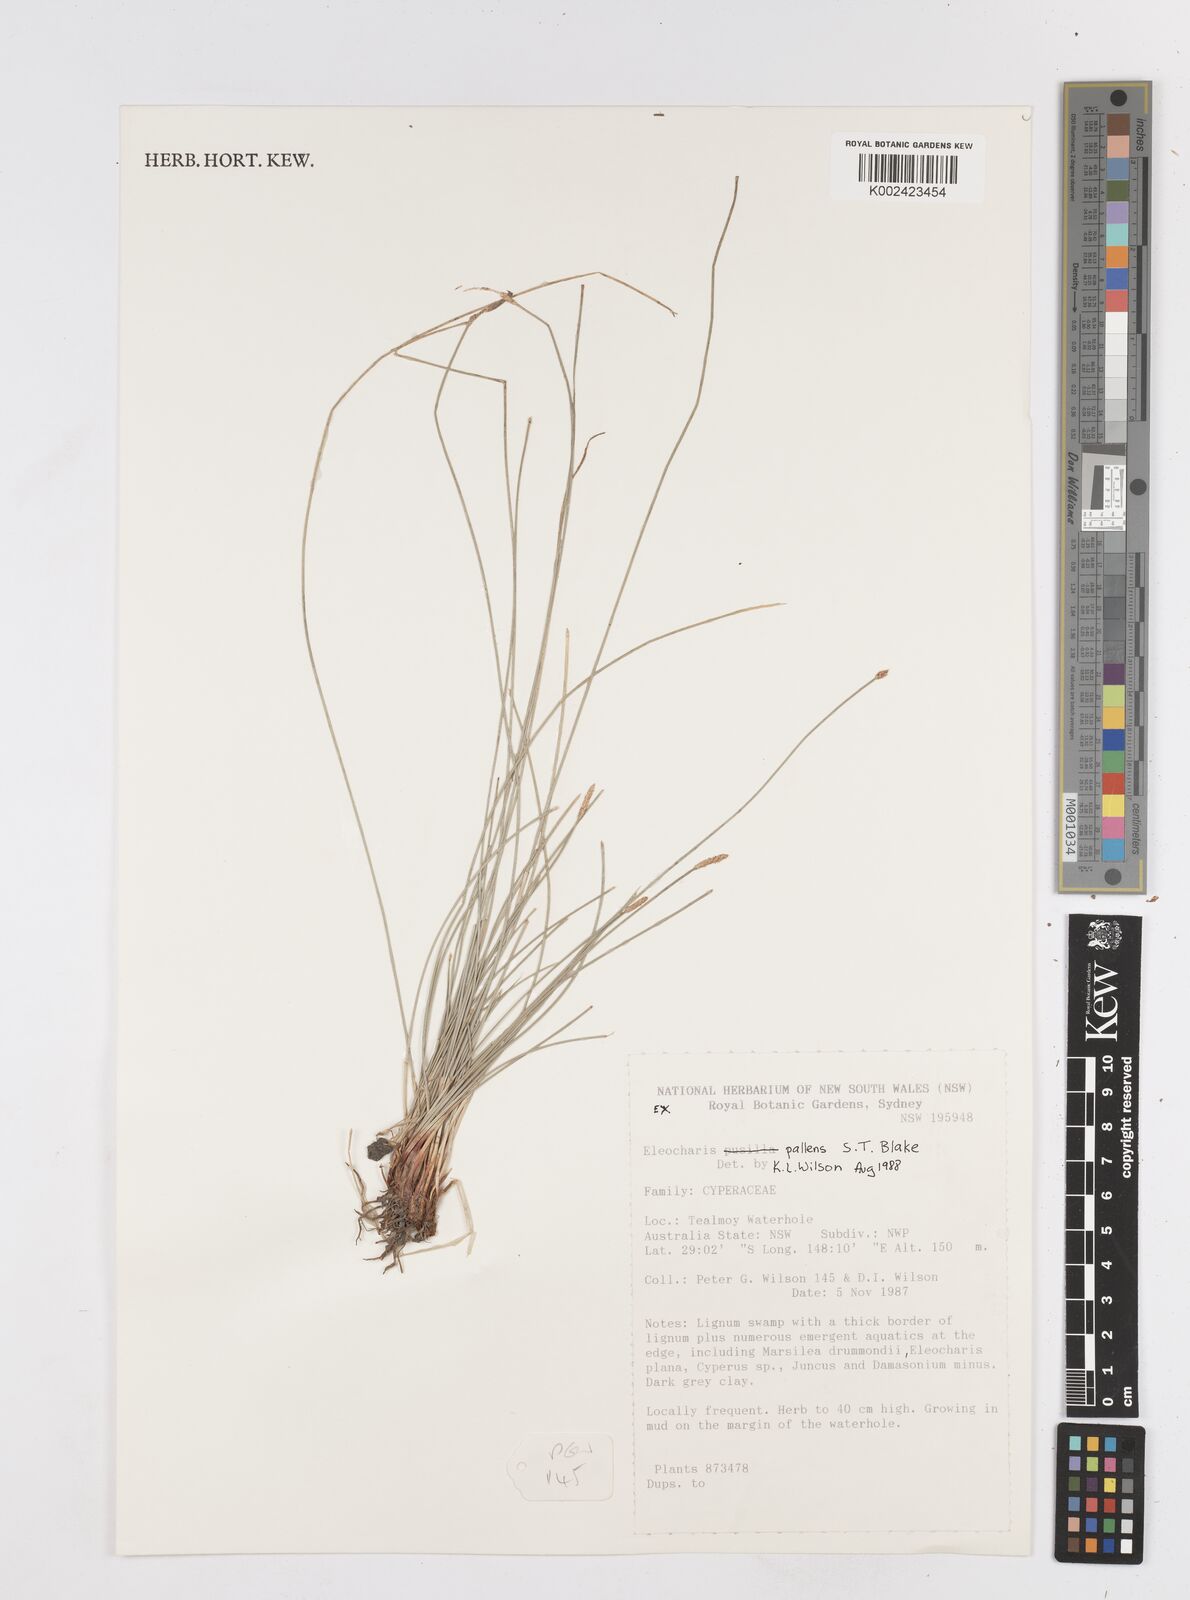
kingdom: Plantae
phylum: Tracheophyta
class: Liliopsida
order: Poales
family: Cyperaceae
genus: Eleocharis
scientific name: Eleocharis acuta
